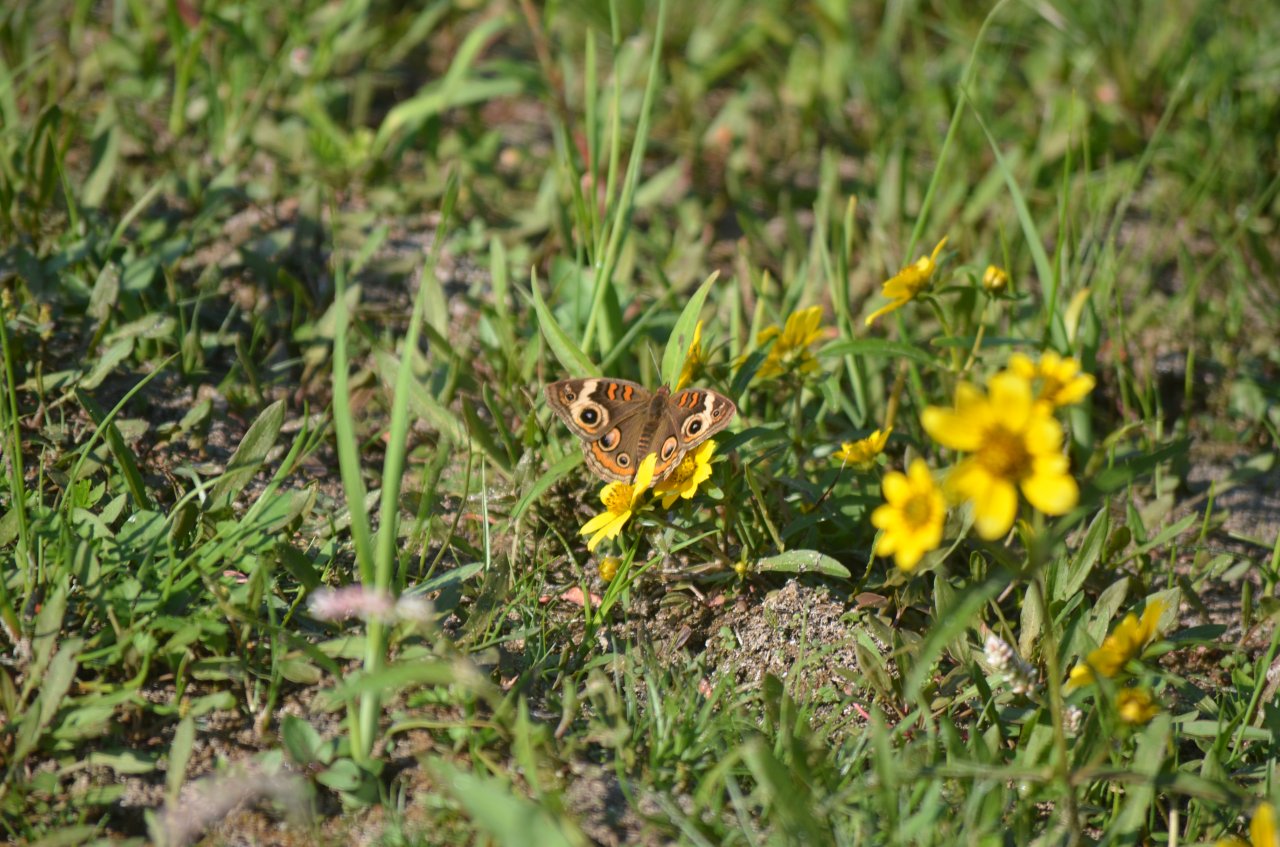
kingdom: Animalia
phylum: Arthropoda
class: Insecta
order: Lepidoptera
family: Nymphalidae
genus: Junonia
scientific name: Junonia coenia
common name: Common Buckeye
